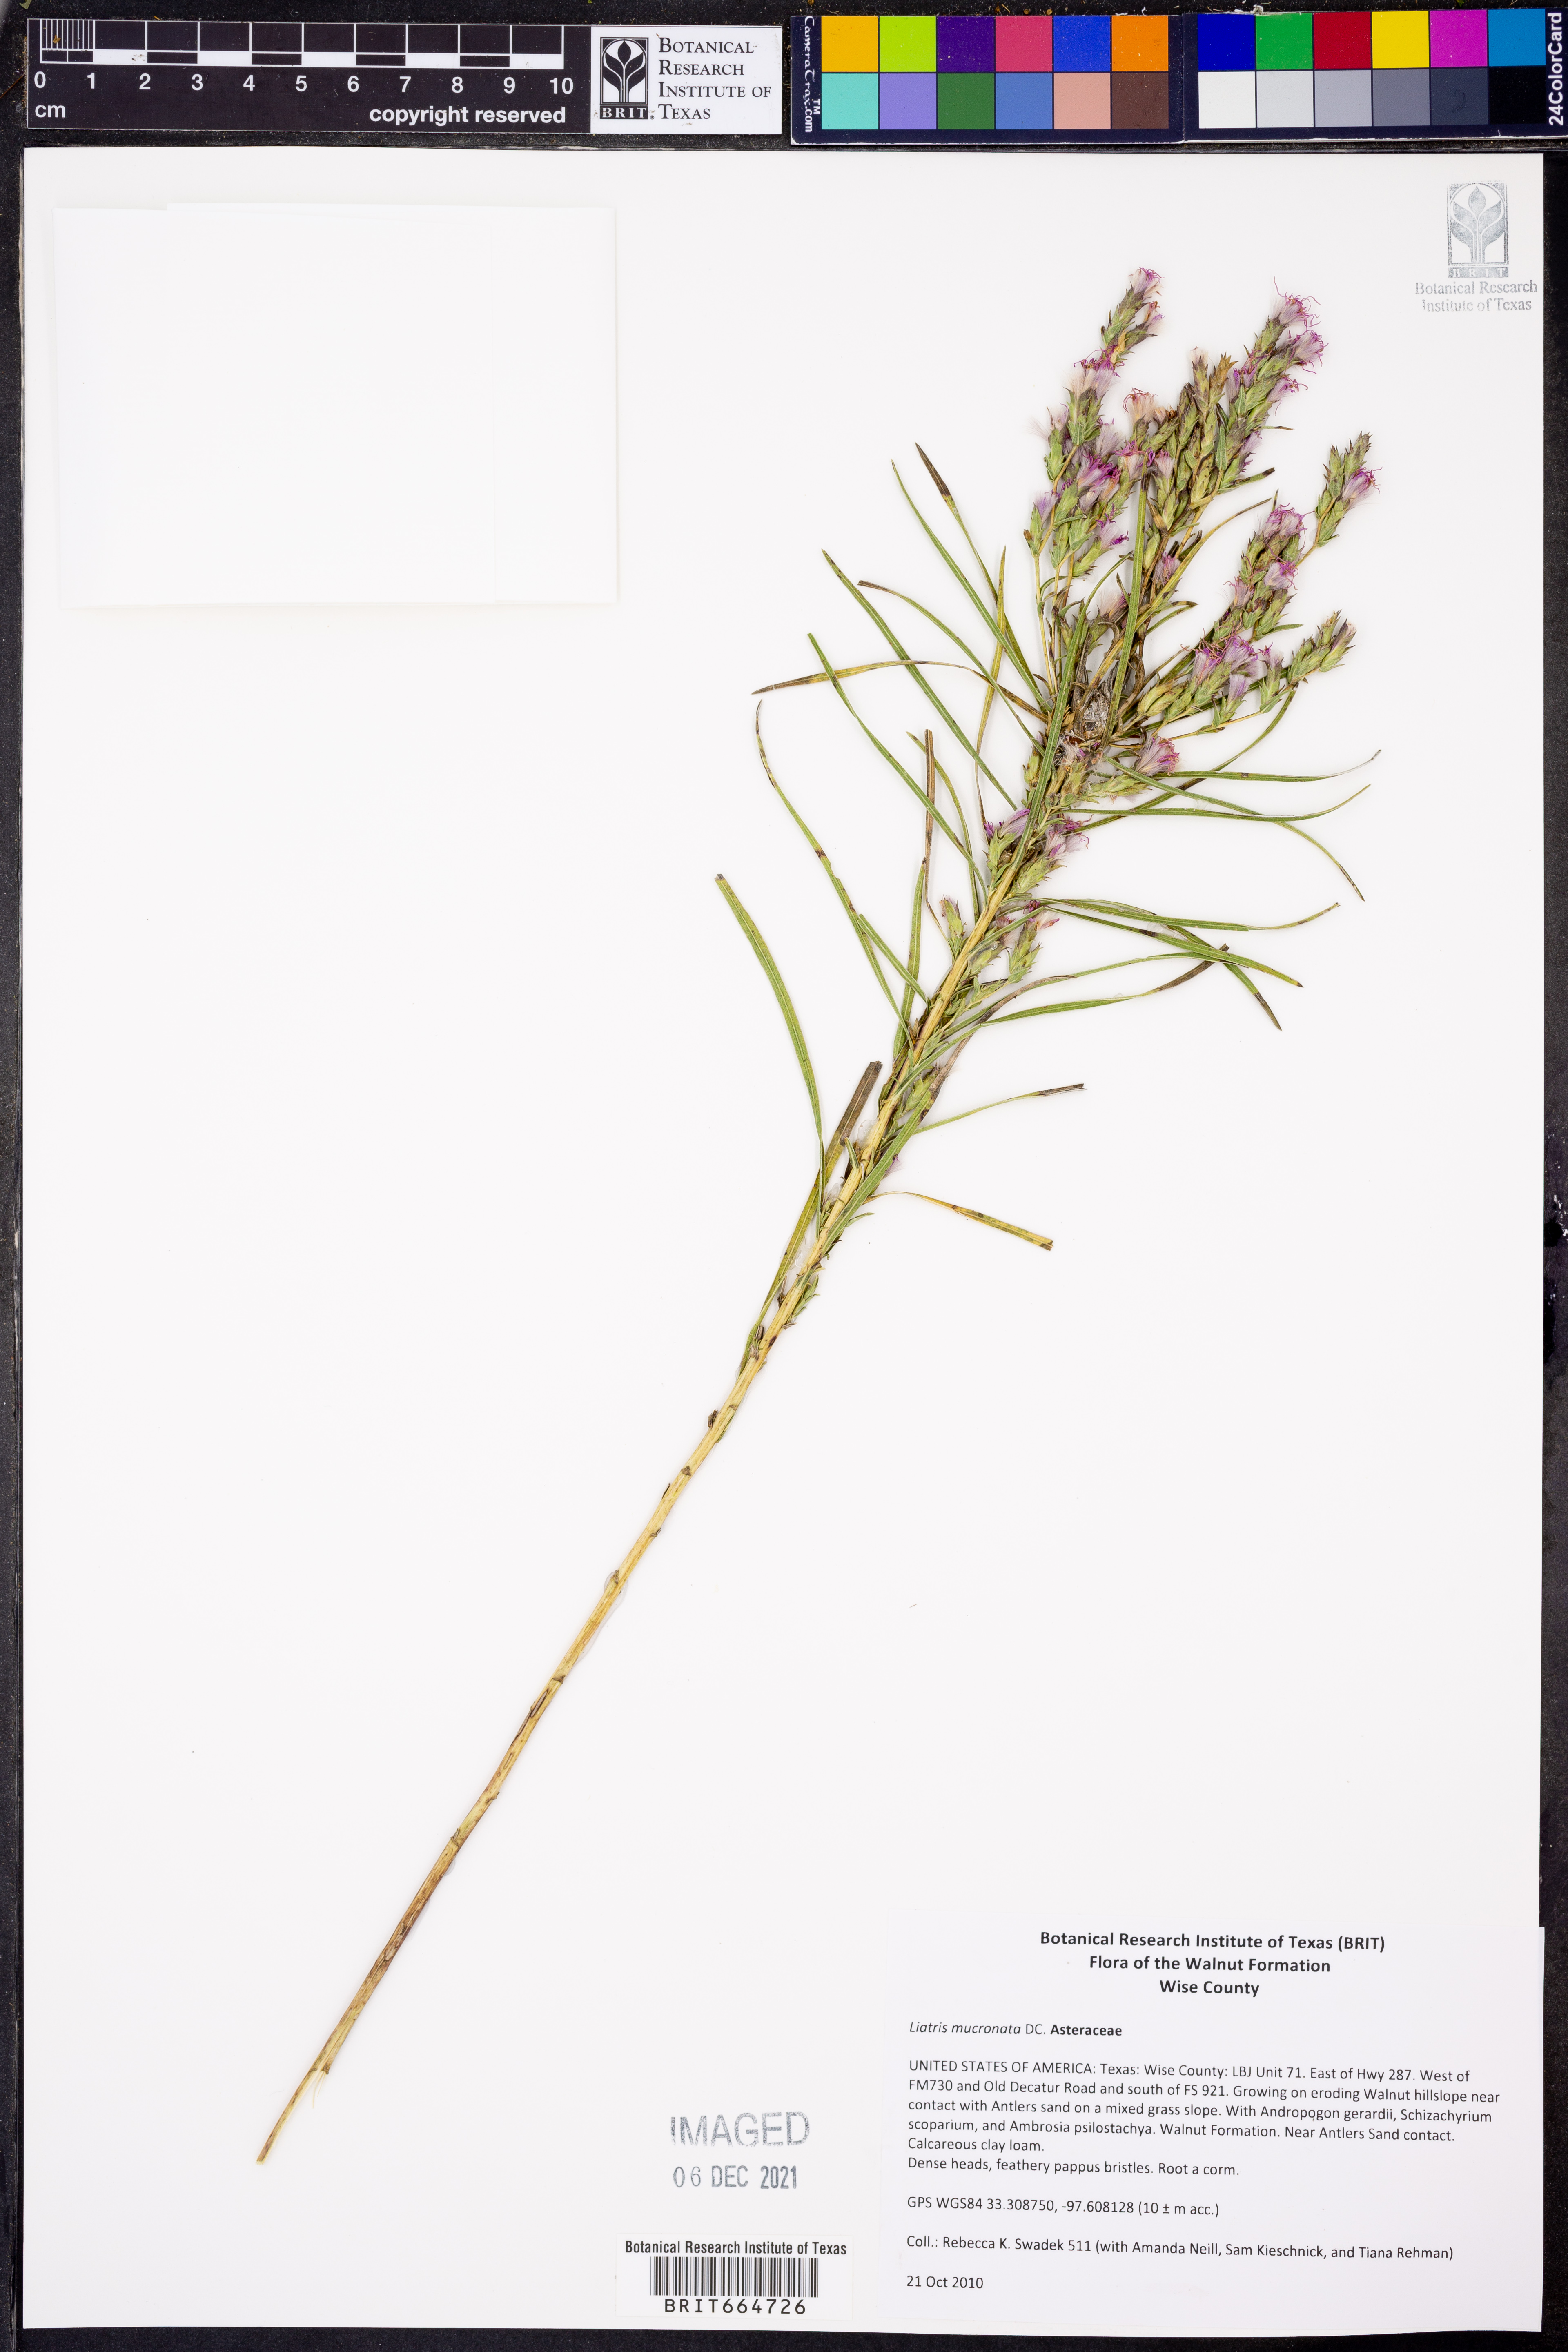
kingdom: Plantae
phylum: Tracheophyta
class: Magnoliopsida
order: Asterales
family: Asteraceae
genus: Liatris
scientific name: Liatris mucronata
